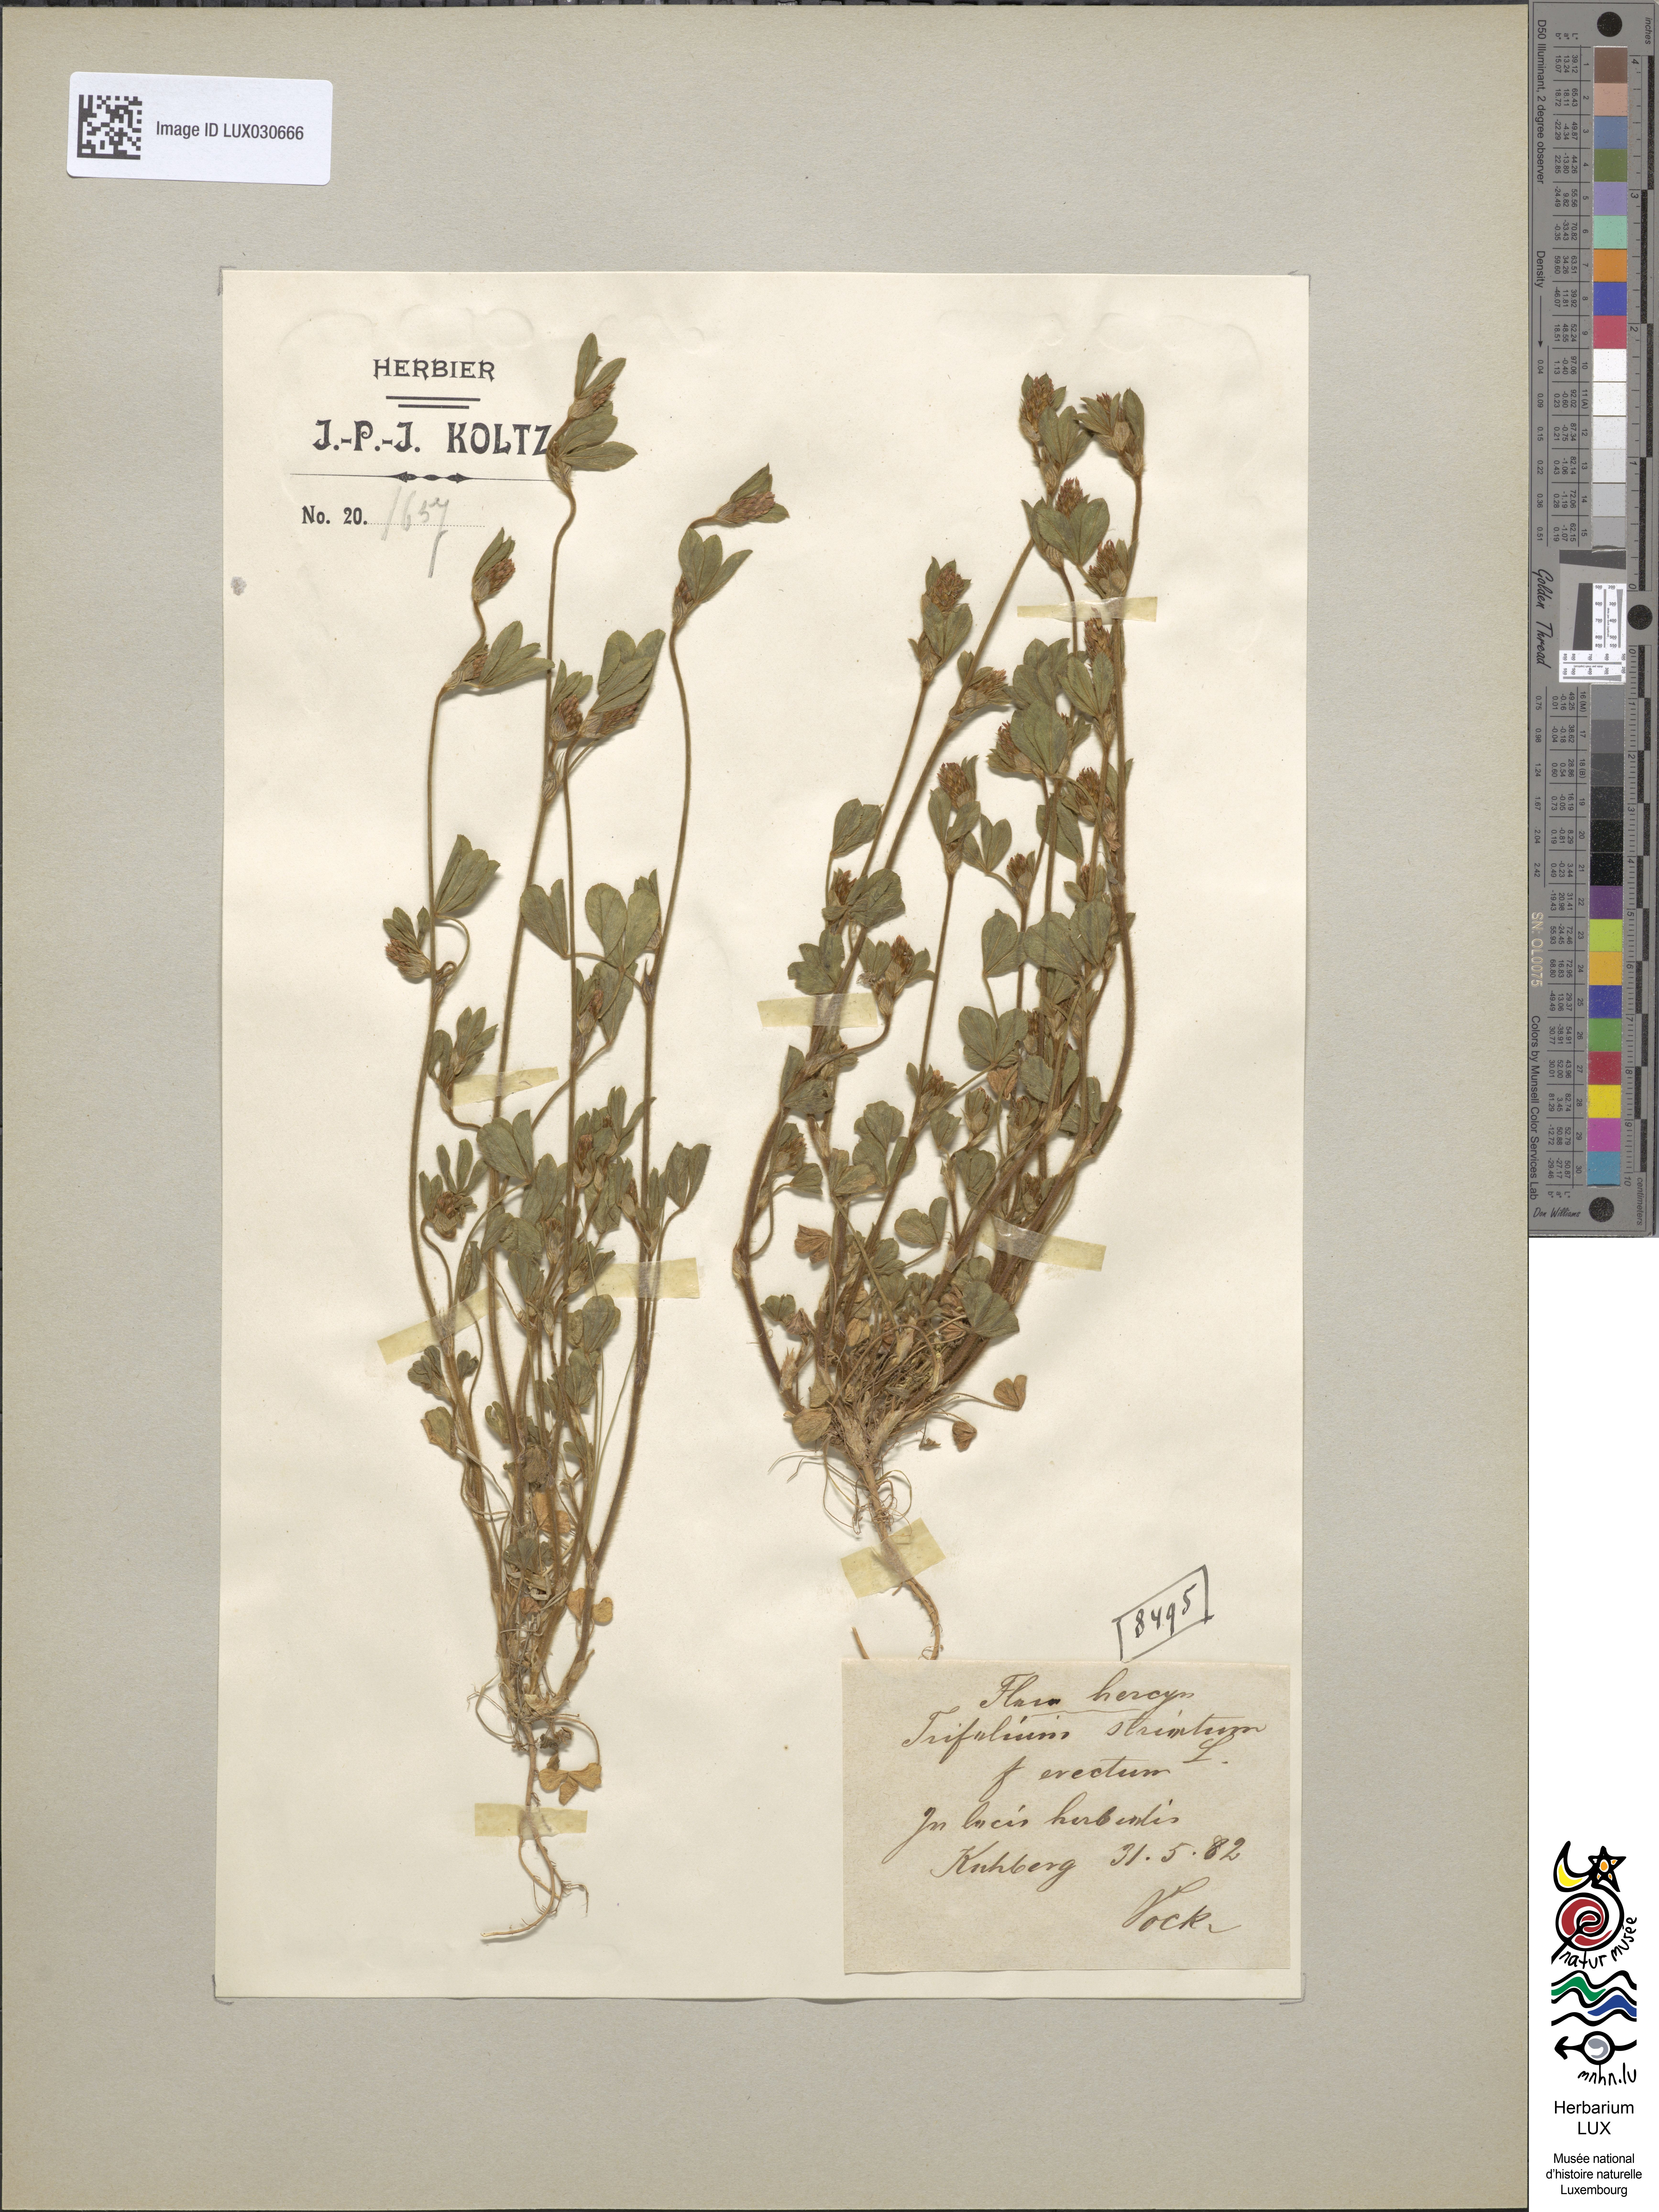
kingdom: Plantae
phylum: Tracheophyta
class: Magnoliopsida
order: Fabales
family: Fabaceae
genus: Trifolium
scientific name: Trifolium striatum
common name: Knotted clover
